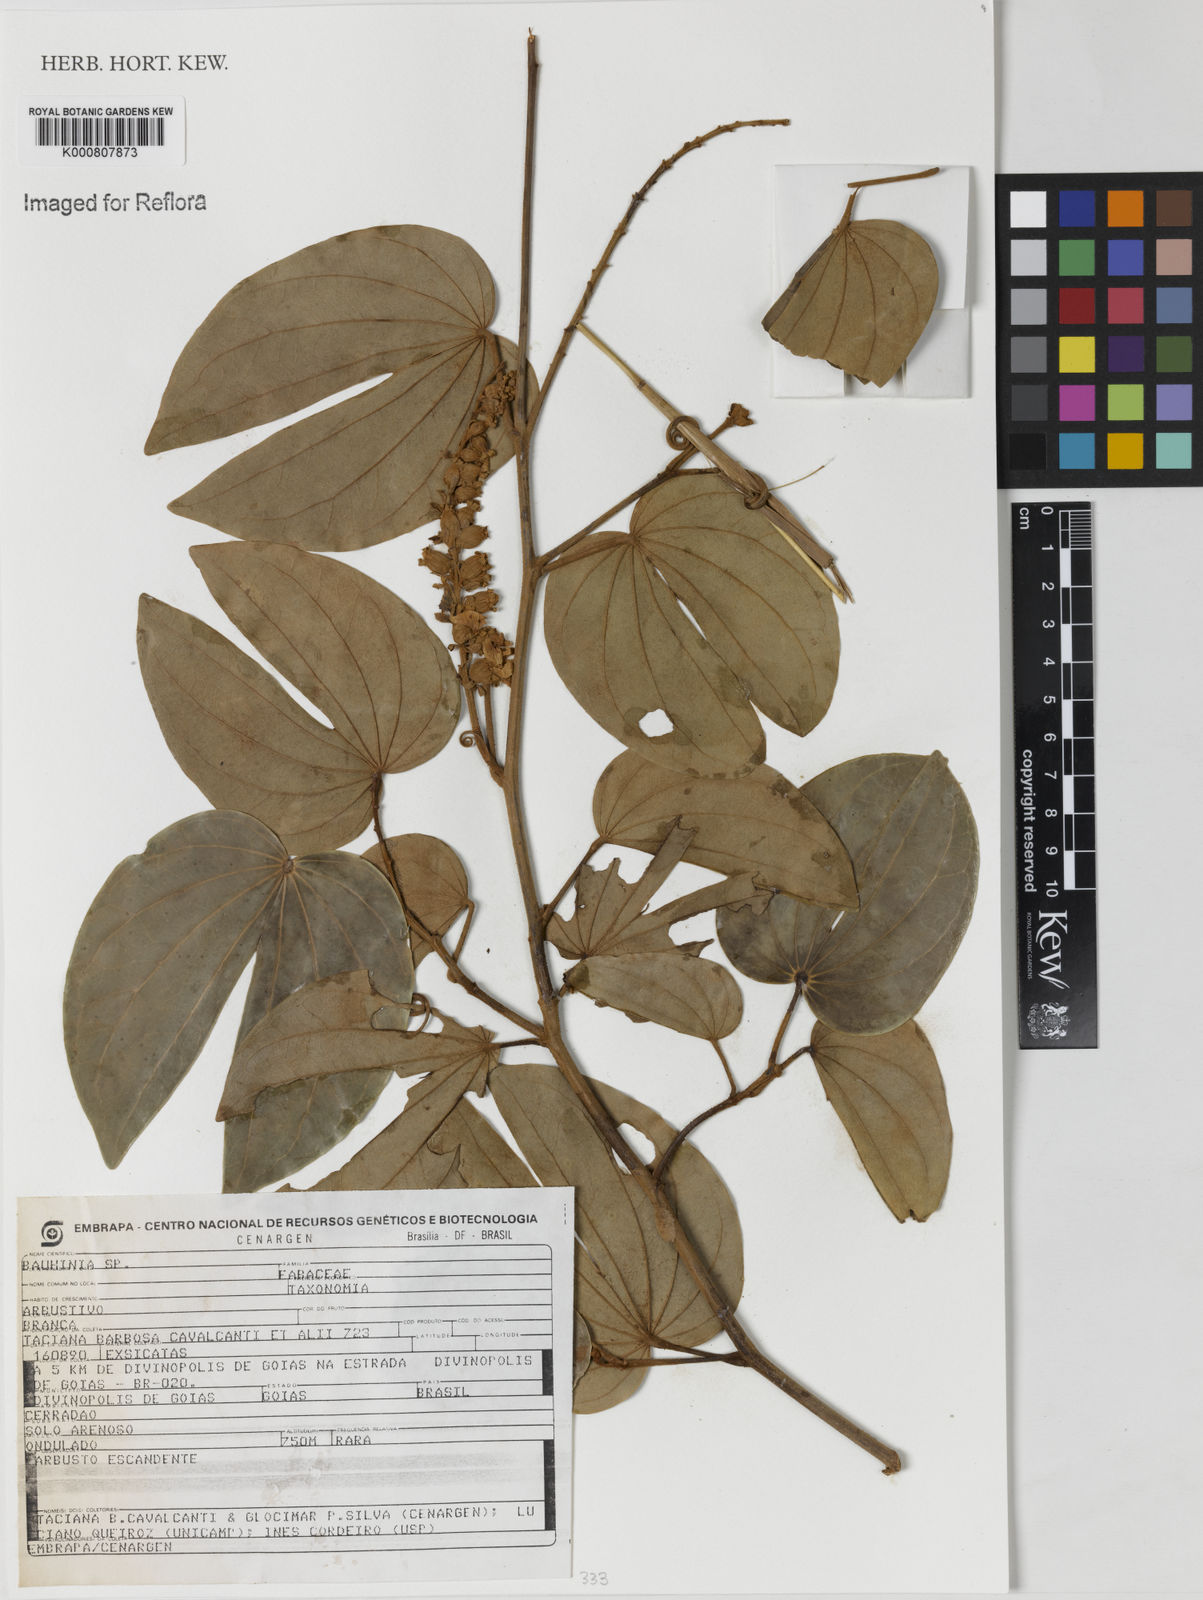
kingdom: Plantae
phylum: Tracheophyta
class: Magnoliopsida
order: Fabales
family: Fabaceae
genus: Bauhinia
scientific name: Bauhinia
